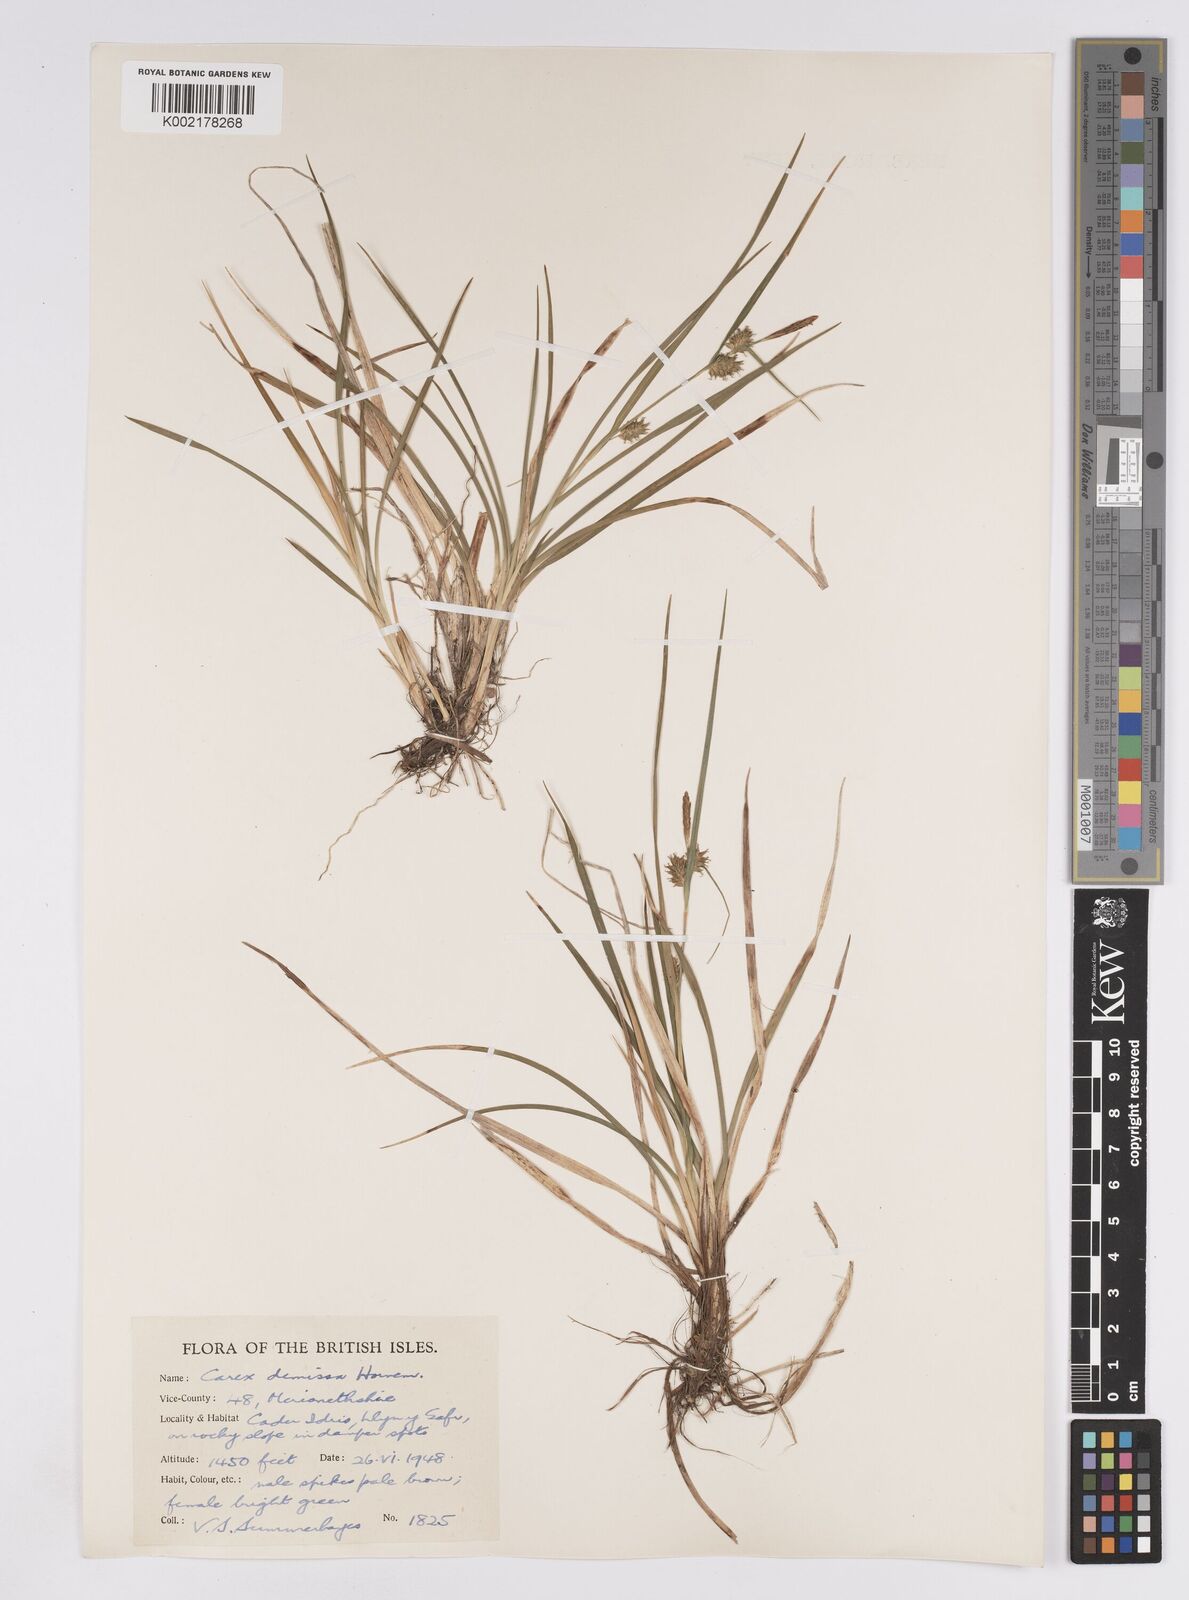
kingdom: Plantae
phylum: Tracheophyta
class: Liliopsida
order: Poales
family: Cyperaceae
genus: Carex
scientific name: Carex demissa
